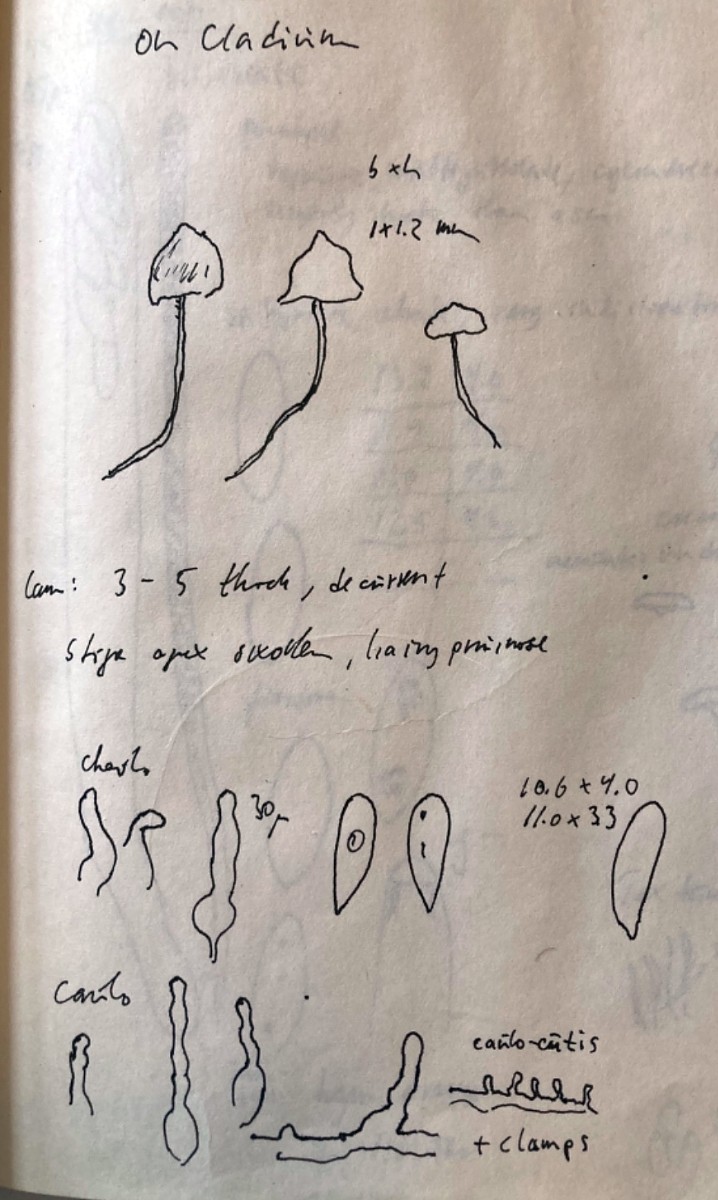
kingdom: Fungi
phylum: Basidiomycota
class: Agaricomycetes
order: Agaricales
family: Mycenaceae
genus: Hemimycena
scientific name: Hemimycena
